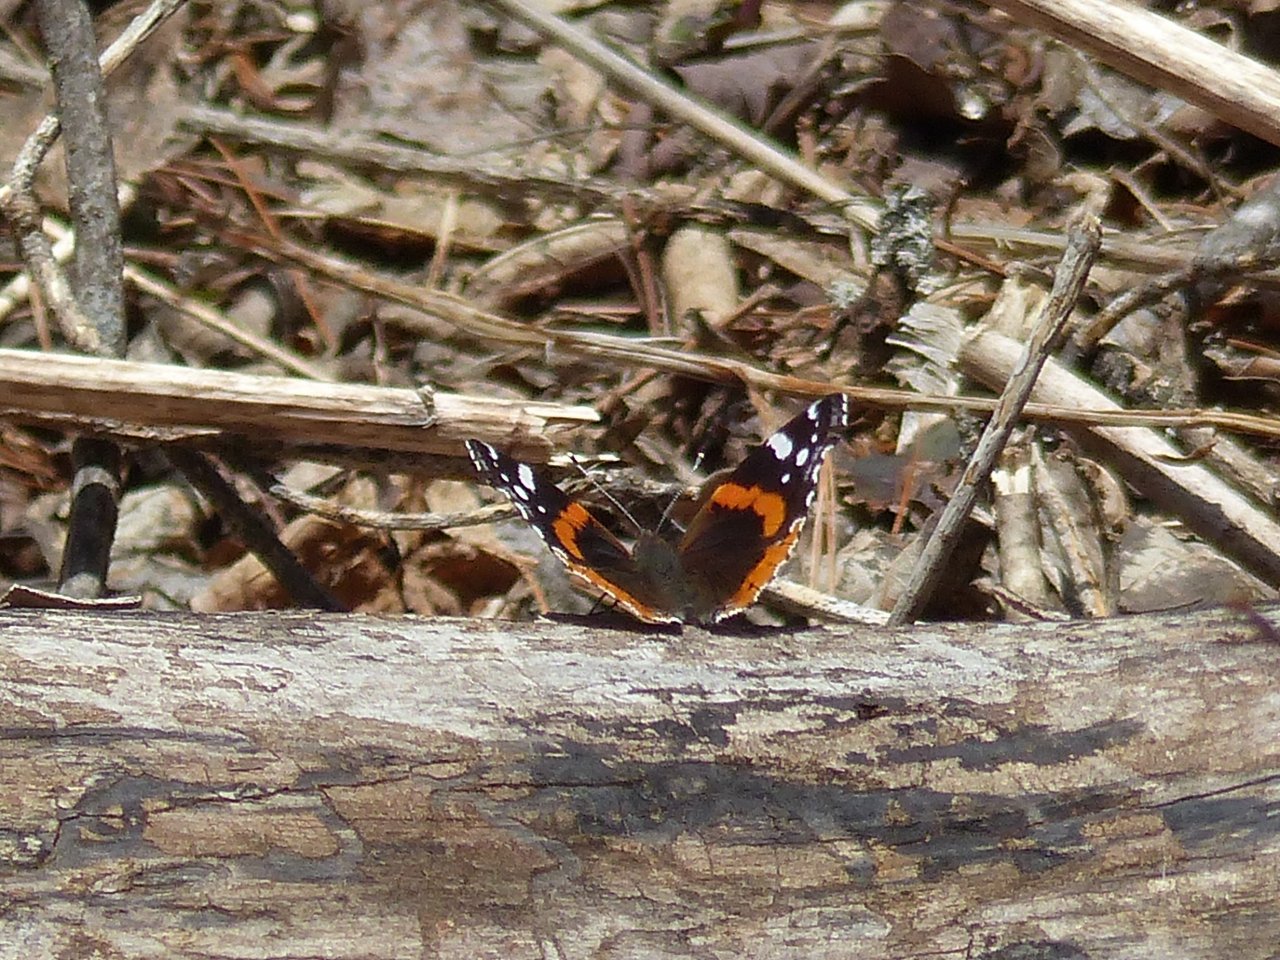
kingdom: Animalia
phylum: Arthropoda
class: Insecta
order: Lepidoptera
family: Nymphalidae
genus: Vanessa
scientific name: Vanessa atalanta
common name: Red Admiral
